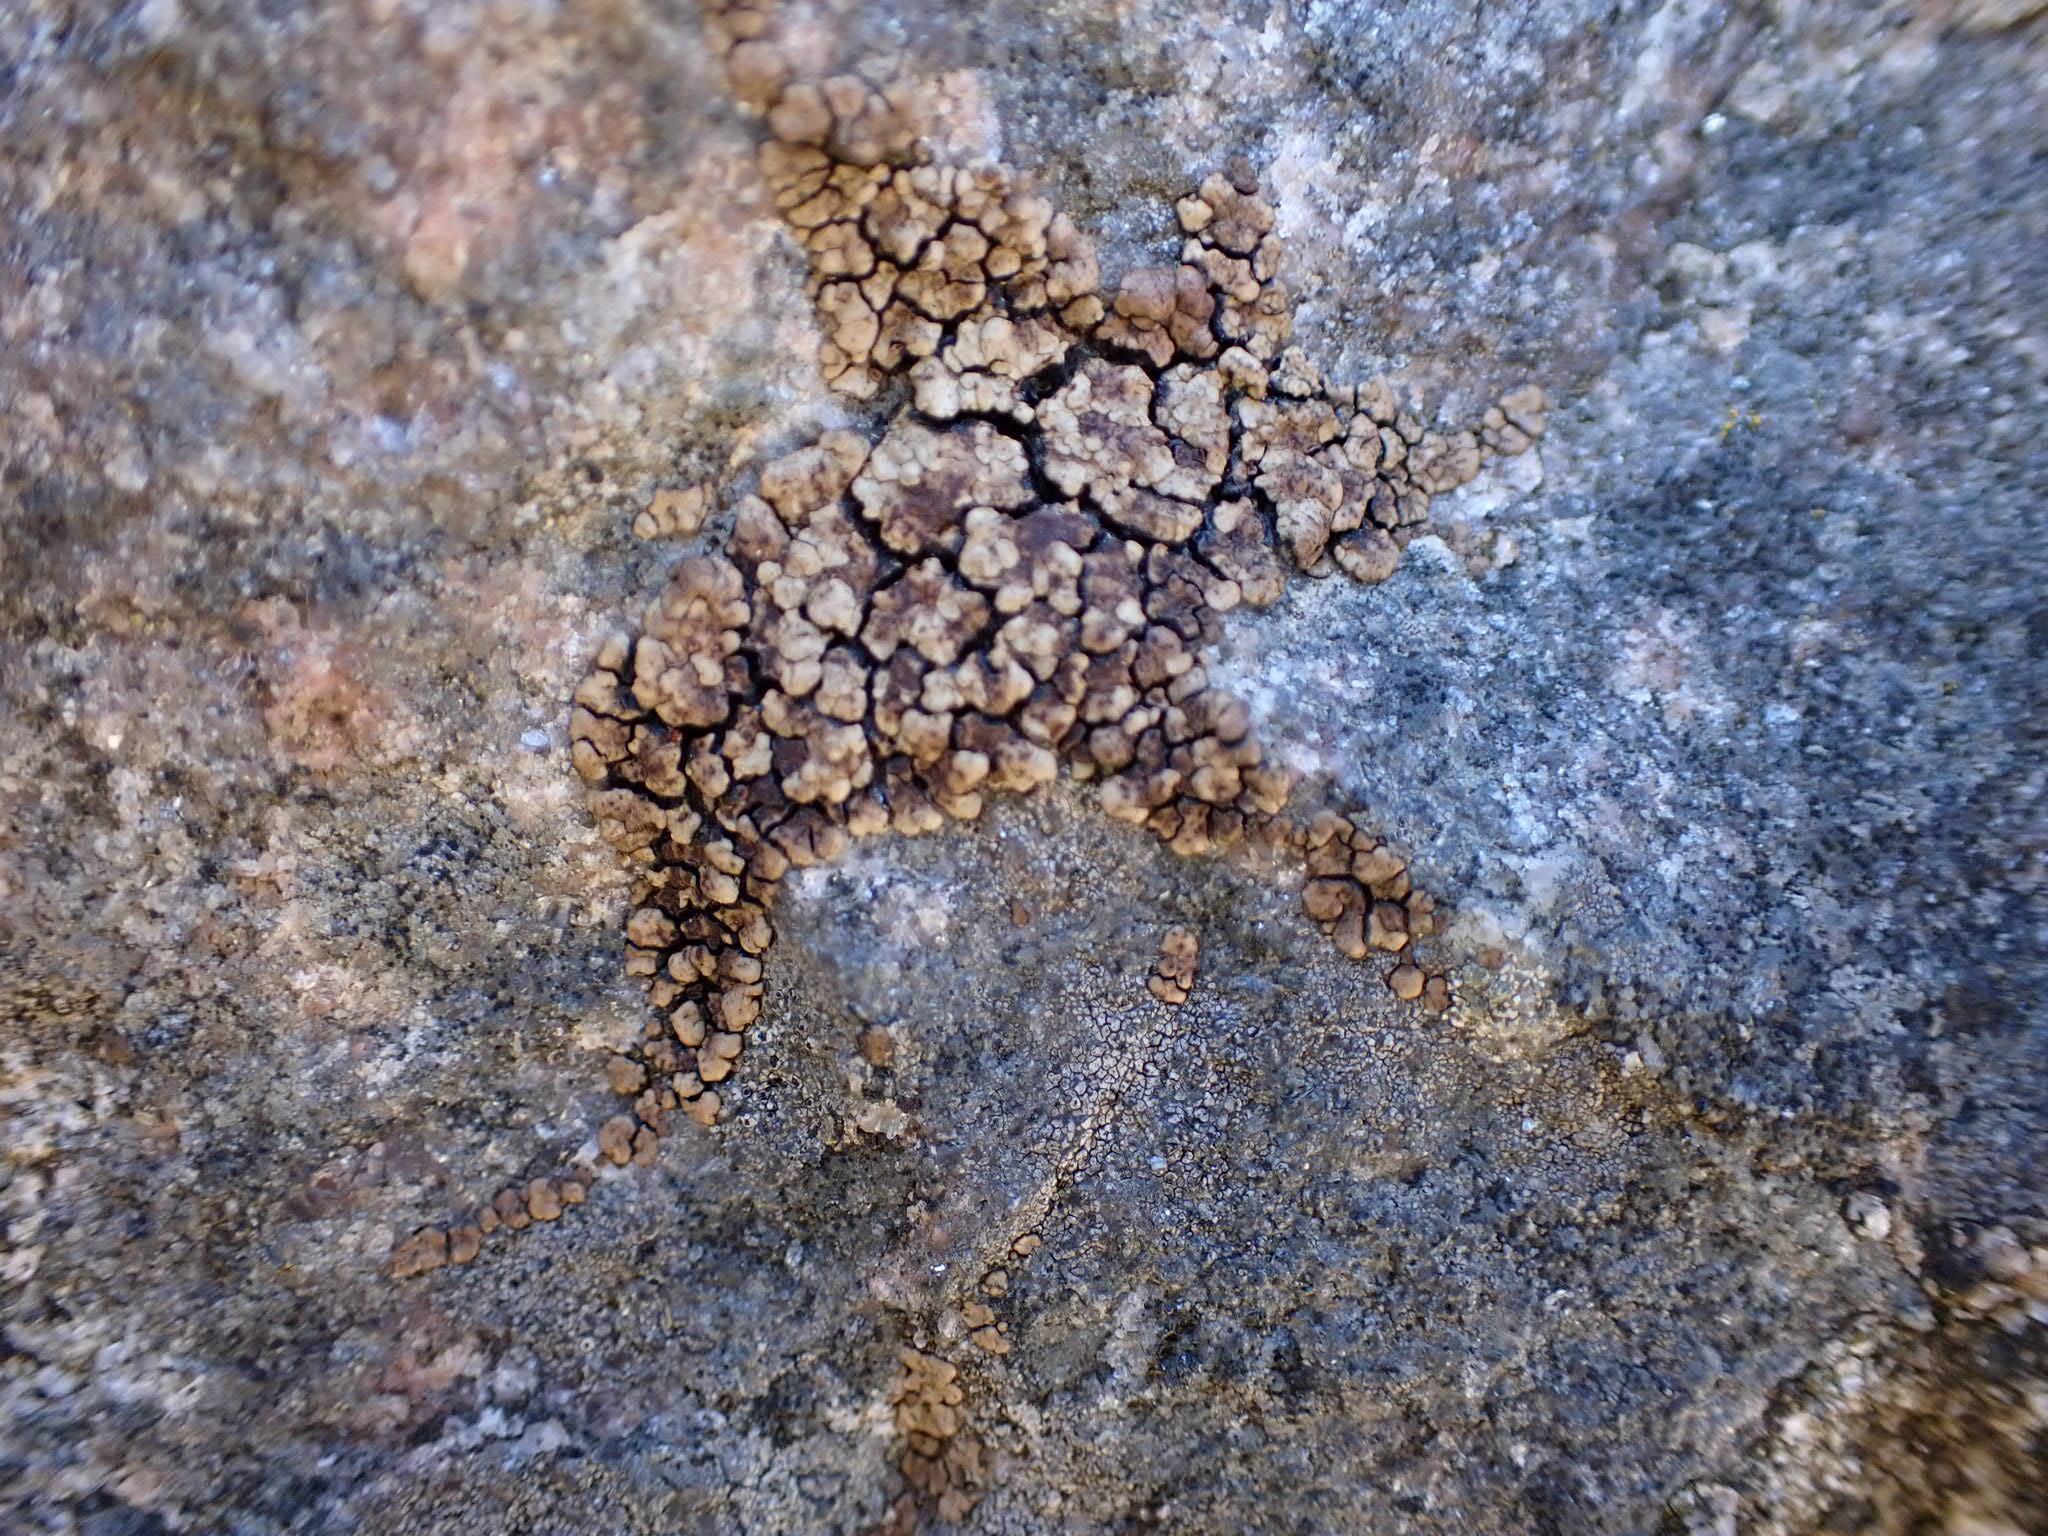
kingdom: Fungi
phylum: Ascomycota
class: Lecanoromycetes
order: Acarosporales
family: Acarosporaceae
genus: Acarospora
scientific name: Acarospora fuscata
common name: brun småsporelav
